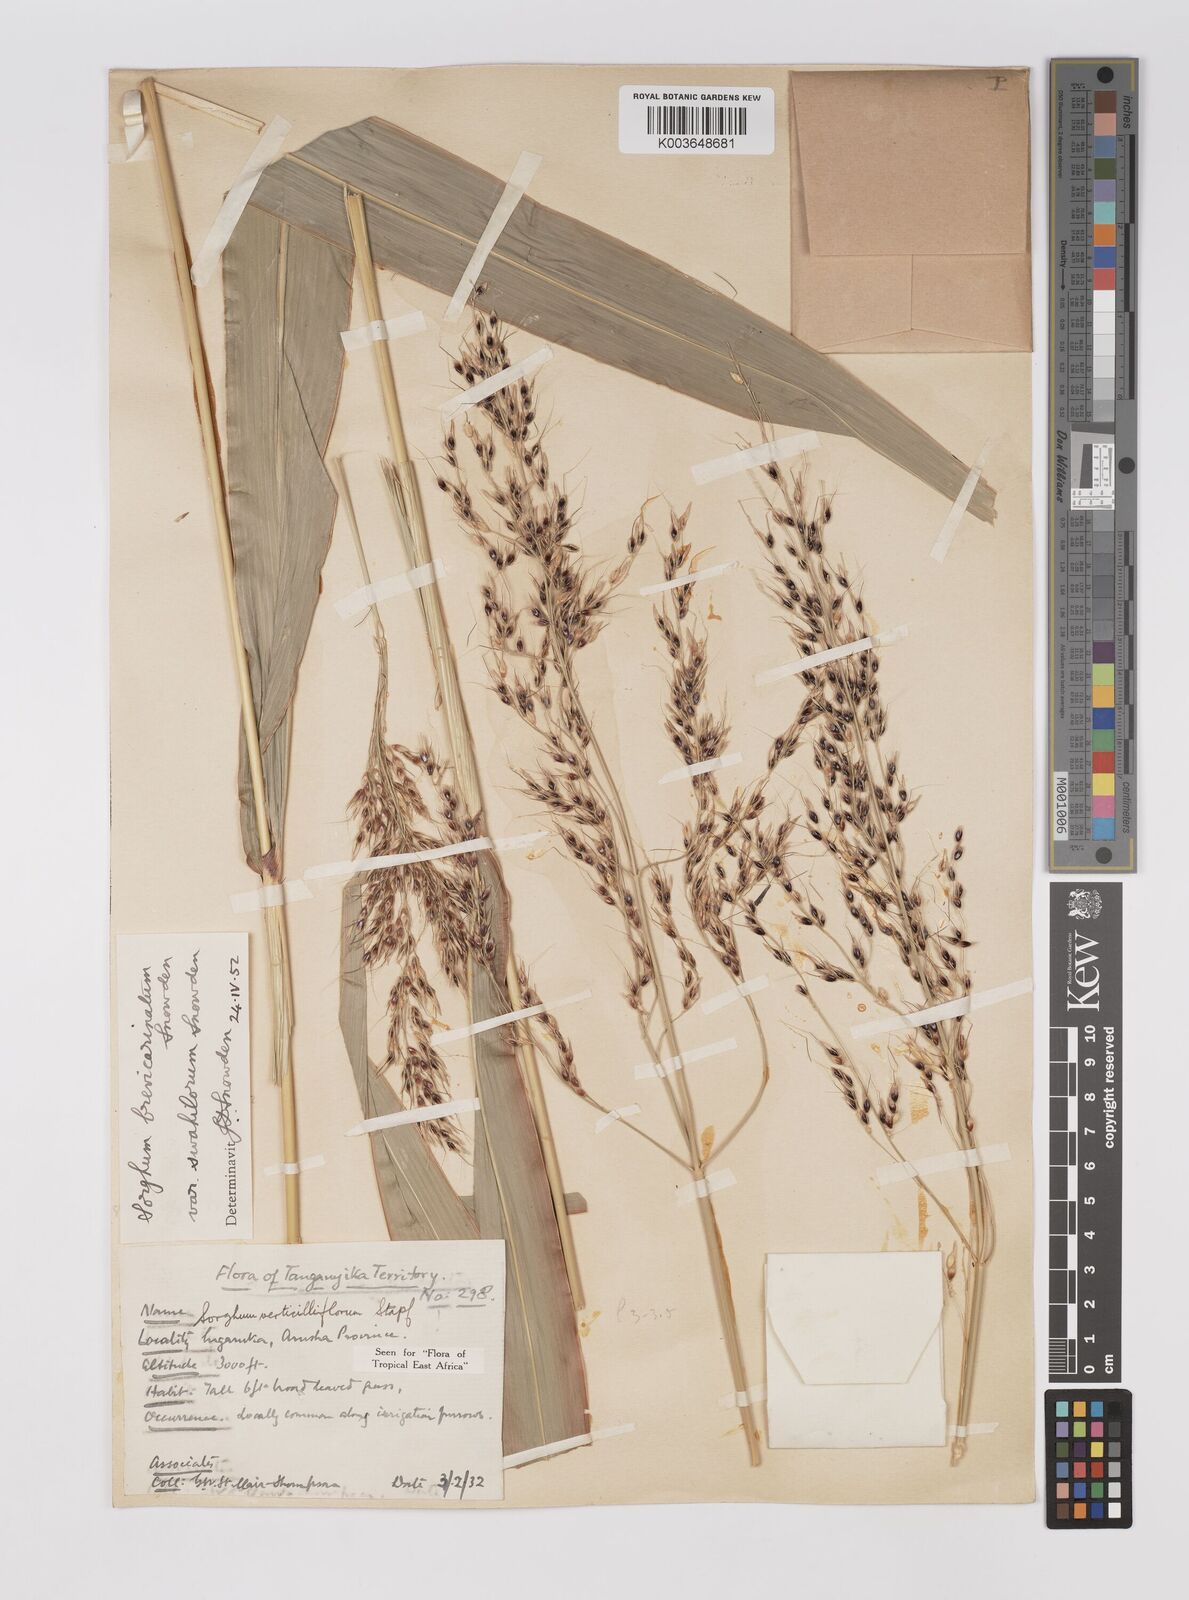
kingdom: Plantae
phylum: Tracheophyta
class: Liliopsida
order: Poales
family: Poaceae
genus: Sorghum
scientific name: Sorghum arundinaceum
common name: Sorghum
